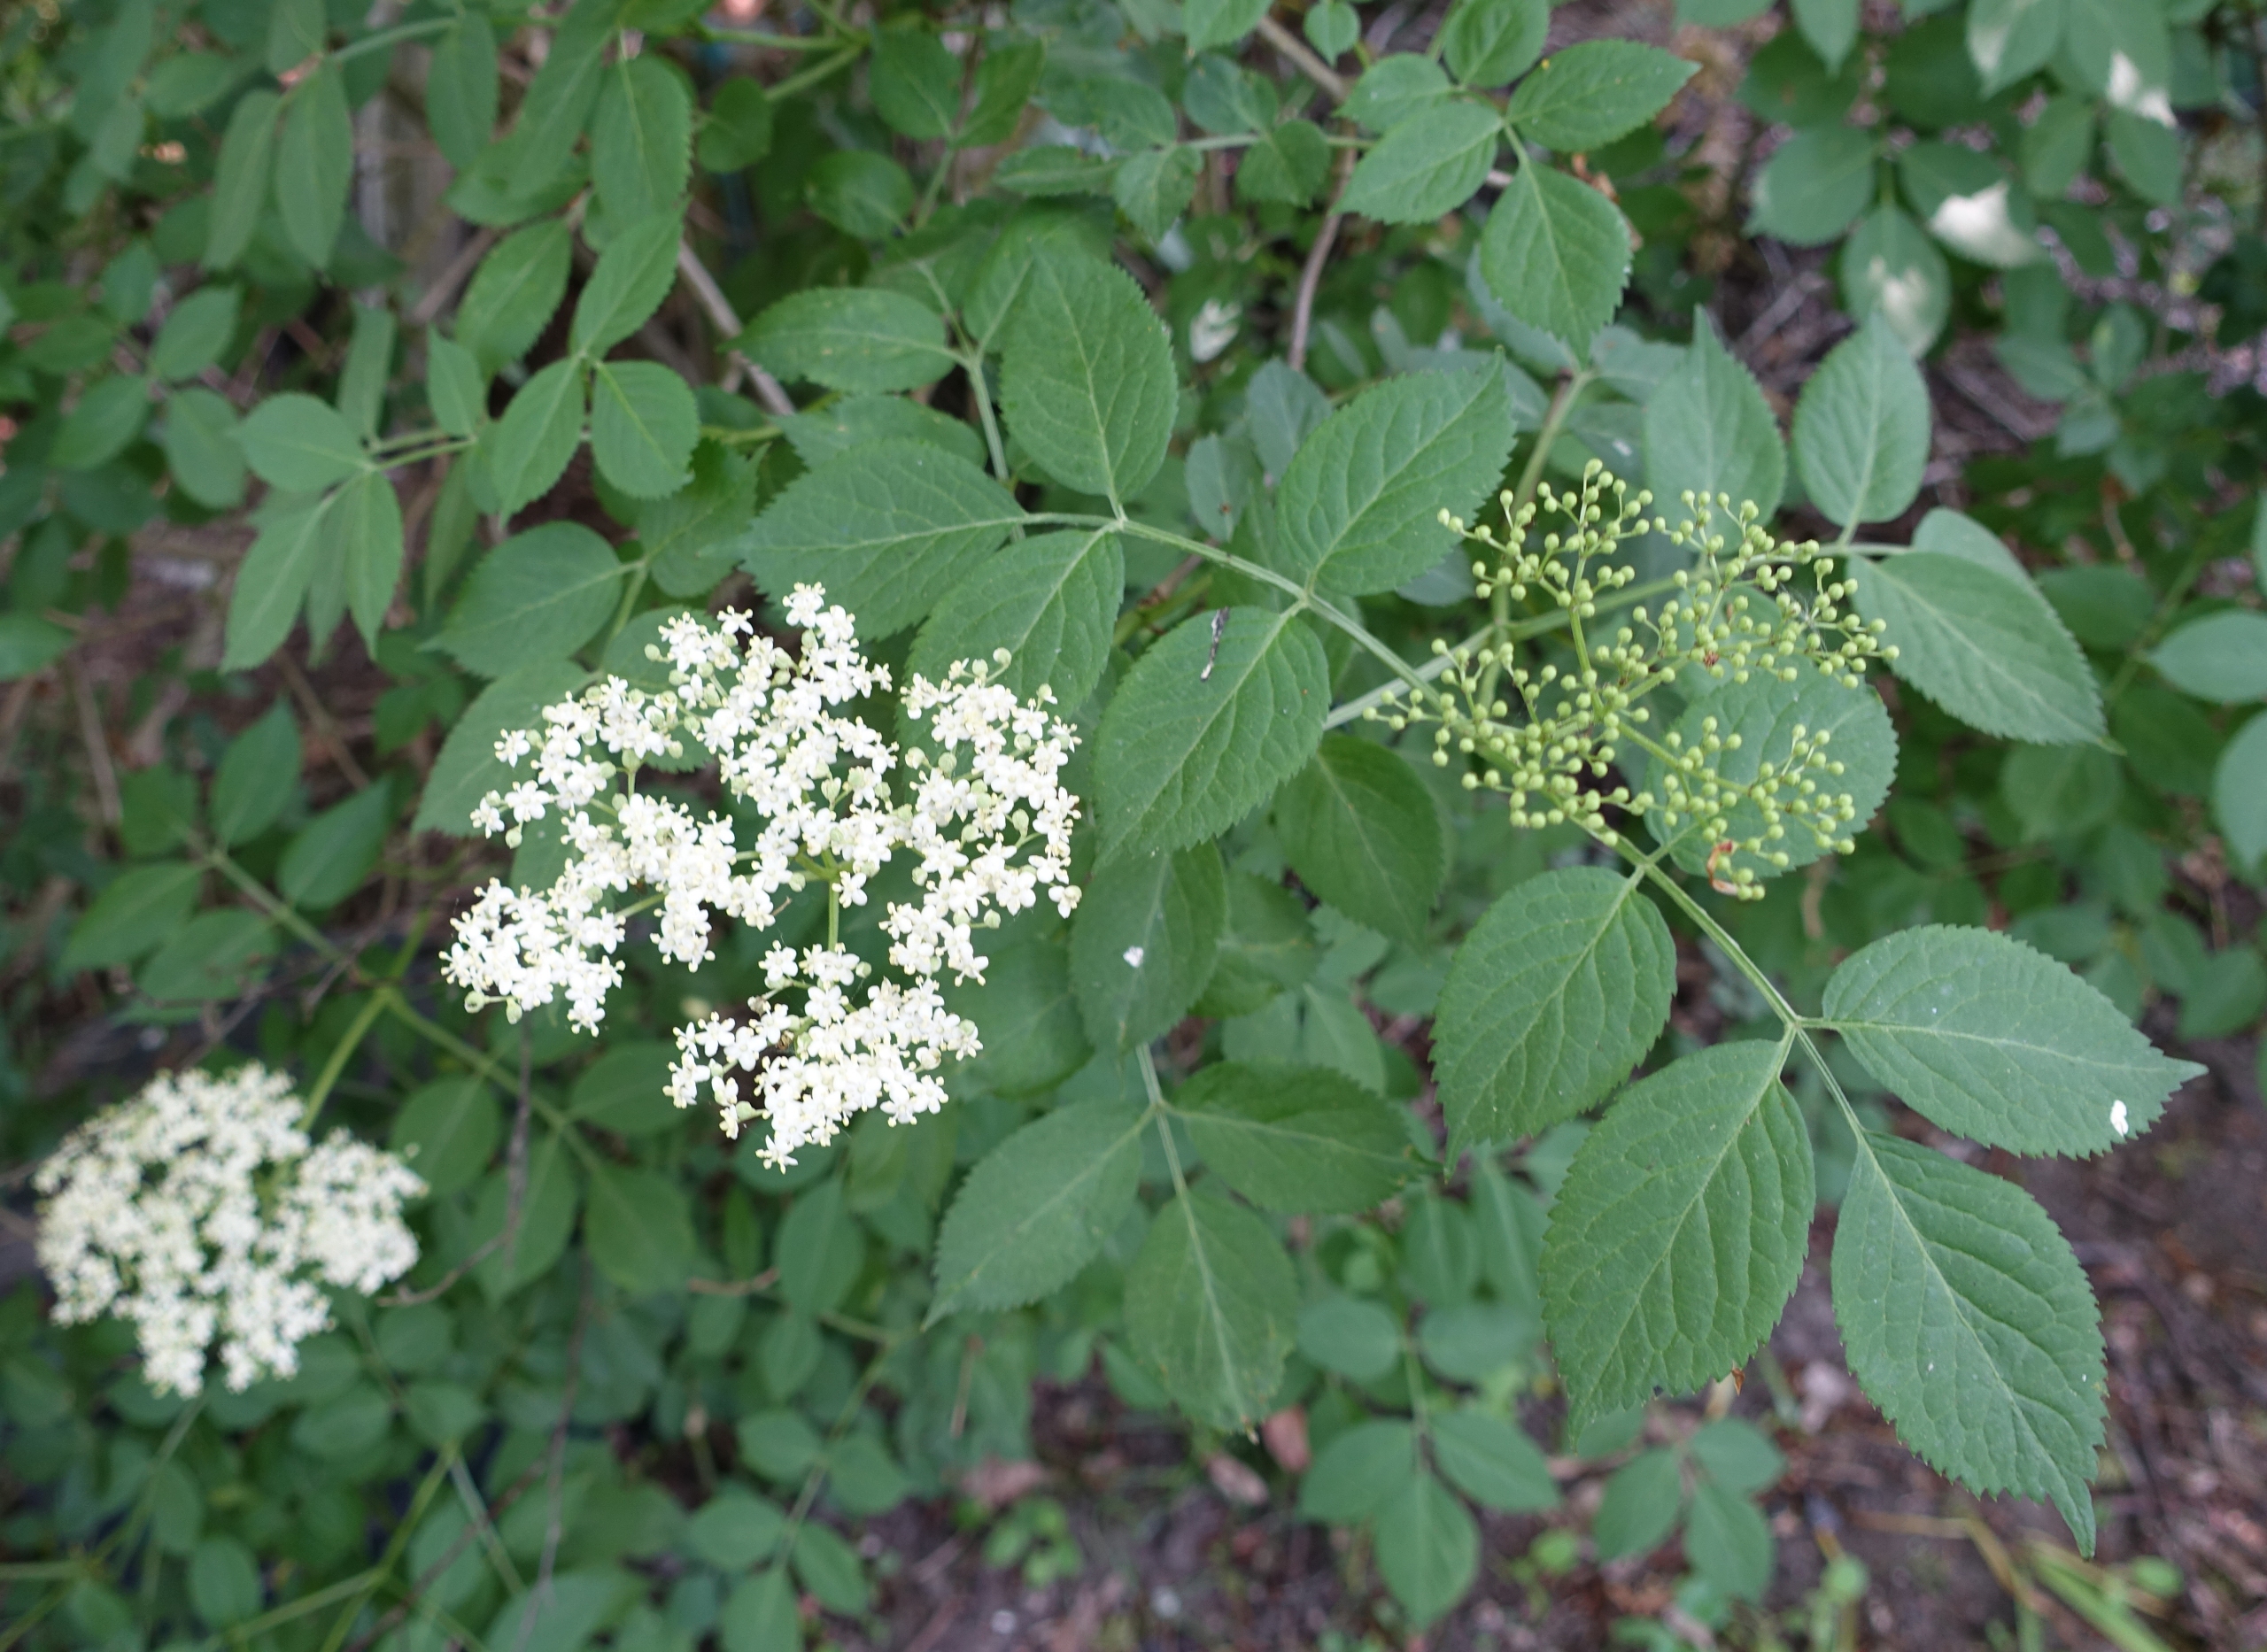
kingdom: Plantae
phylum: Tracheophyta
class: Magnoliopsida
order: Dipsacales
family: Viburnaceae
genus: Sambucus
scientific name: Sambucus nigra
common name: Almindelig hyld
